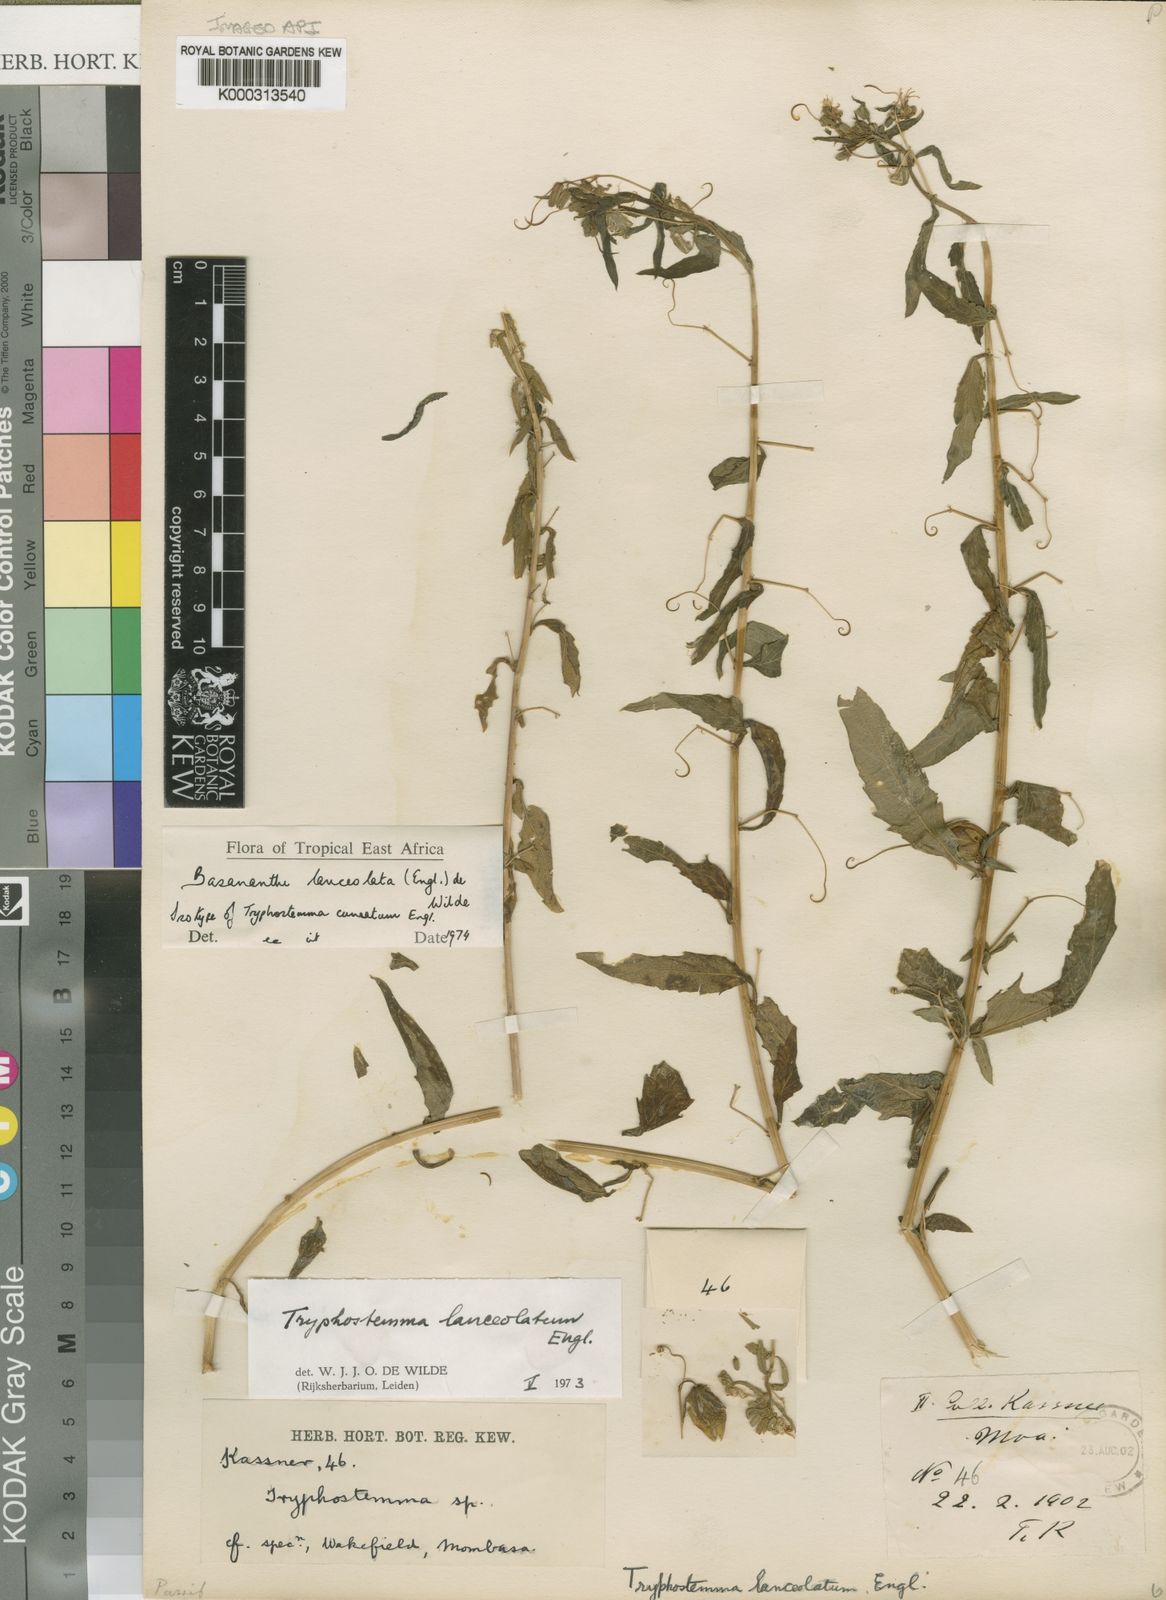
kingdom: Plantae
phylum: Tracheophyta
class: Magnoliopsida
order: Malpighiales
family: Passifloraceae
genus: Basananthe
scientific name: Basananthe lanceolata
